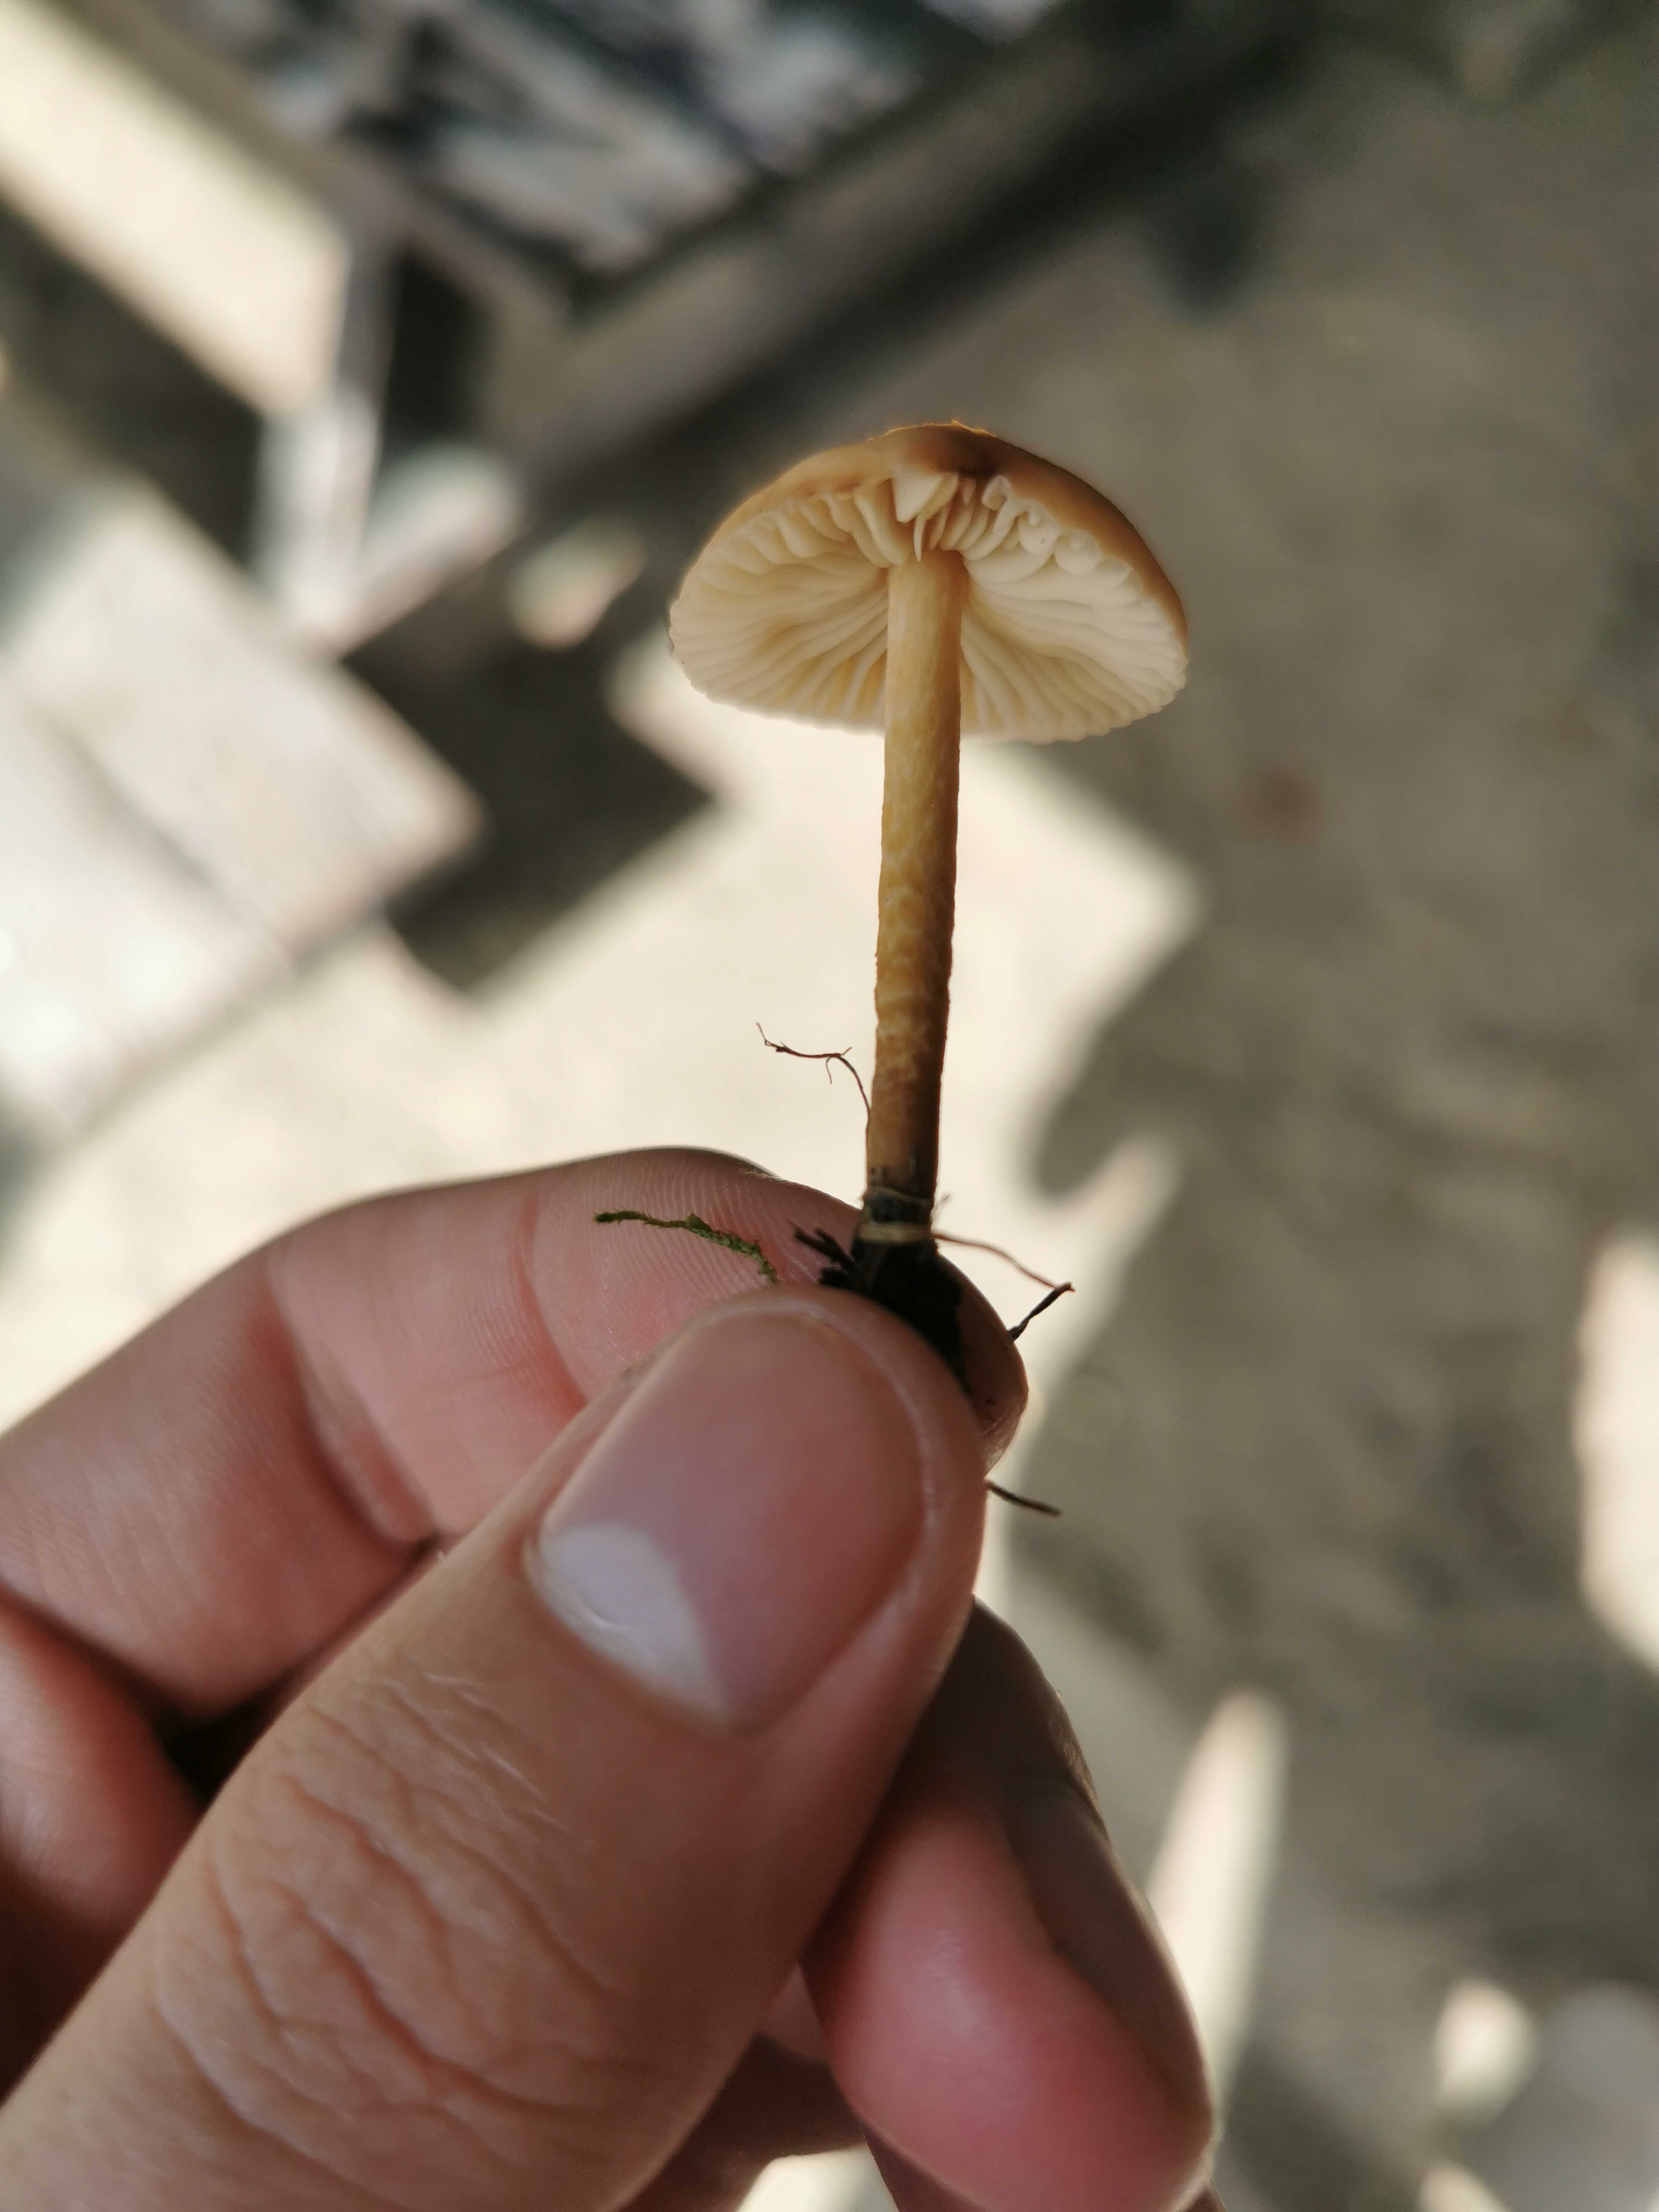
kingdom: Fungi
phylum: Basidiomycota
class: Agaricomycetes
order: Agaricales
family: Marasmiaceae
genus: Marasmius
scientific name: Marasmius oreades
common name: elledans-bruskhat
